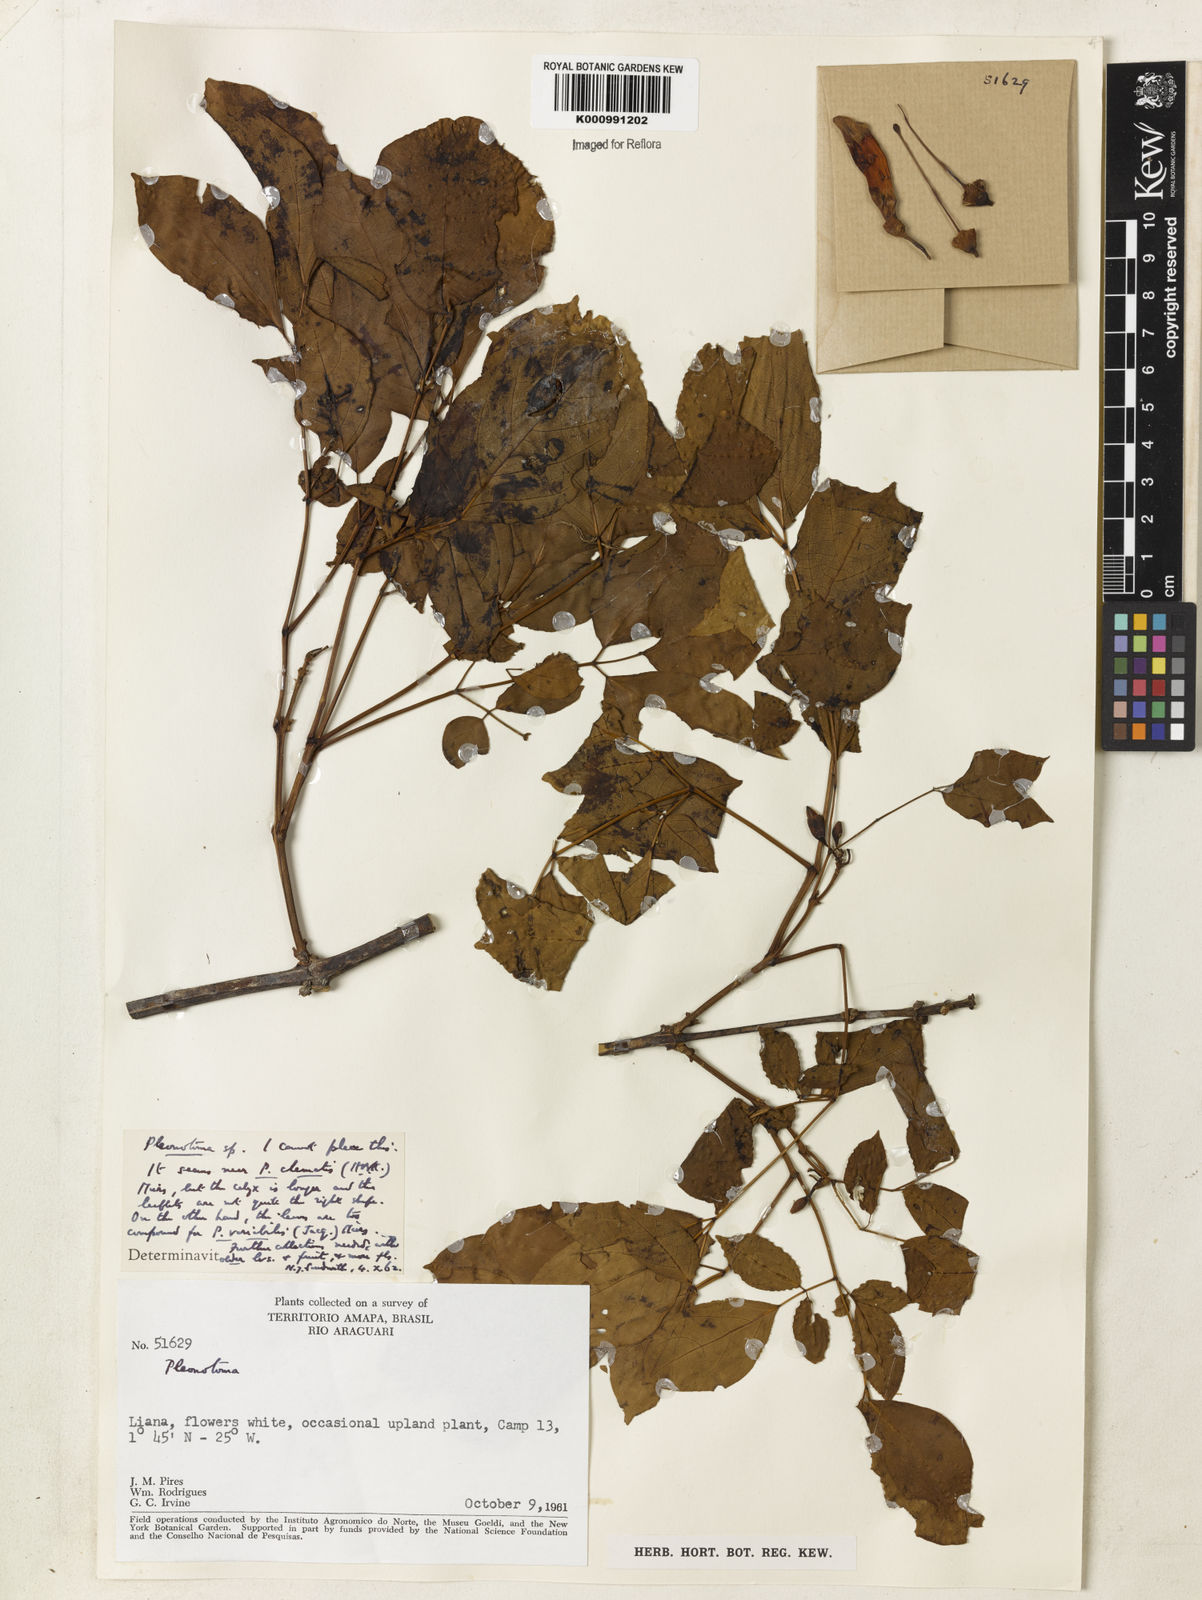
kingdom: Plantae
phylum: Tracheophyta
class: Magnoliopsida
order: Lamiales
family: Bignoniaceae
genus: Pleonotoma
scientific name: Pleonotoma
